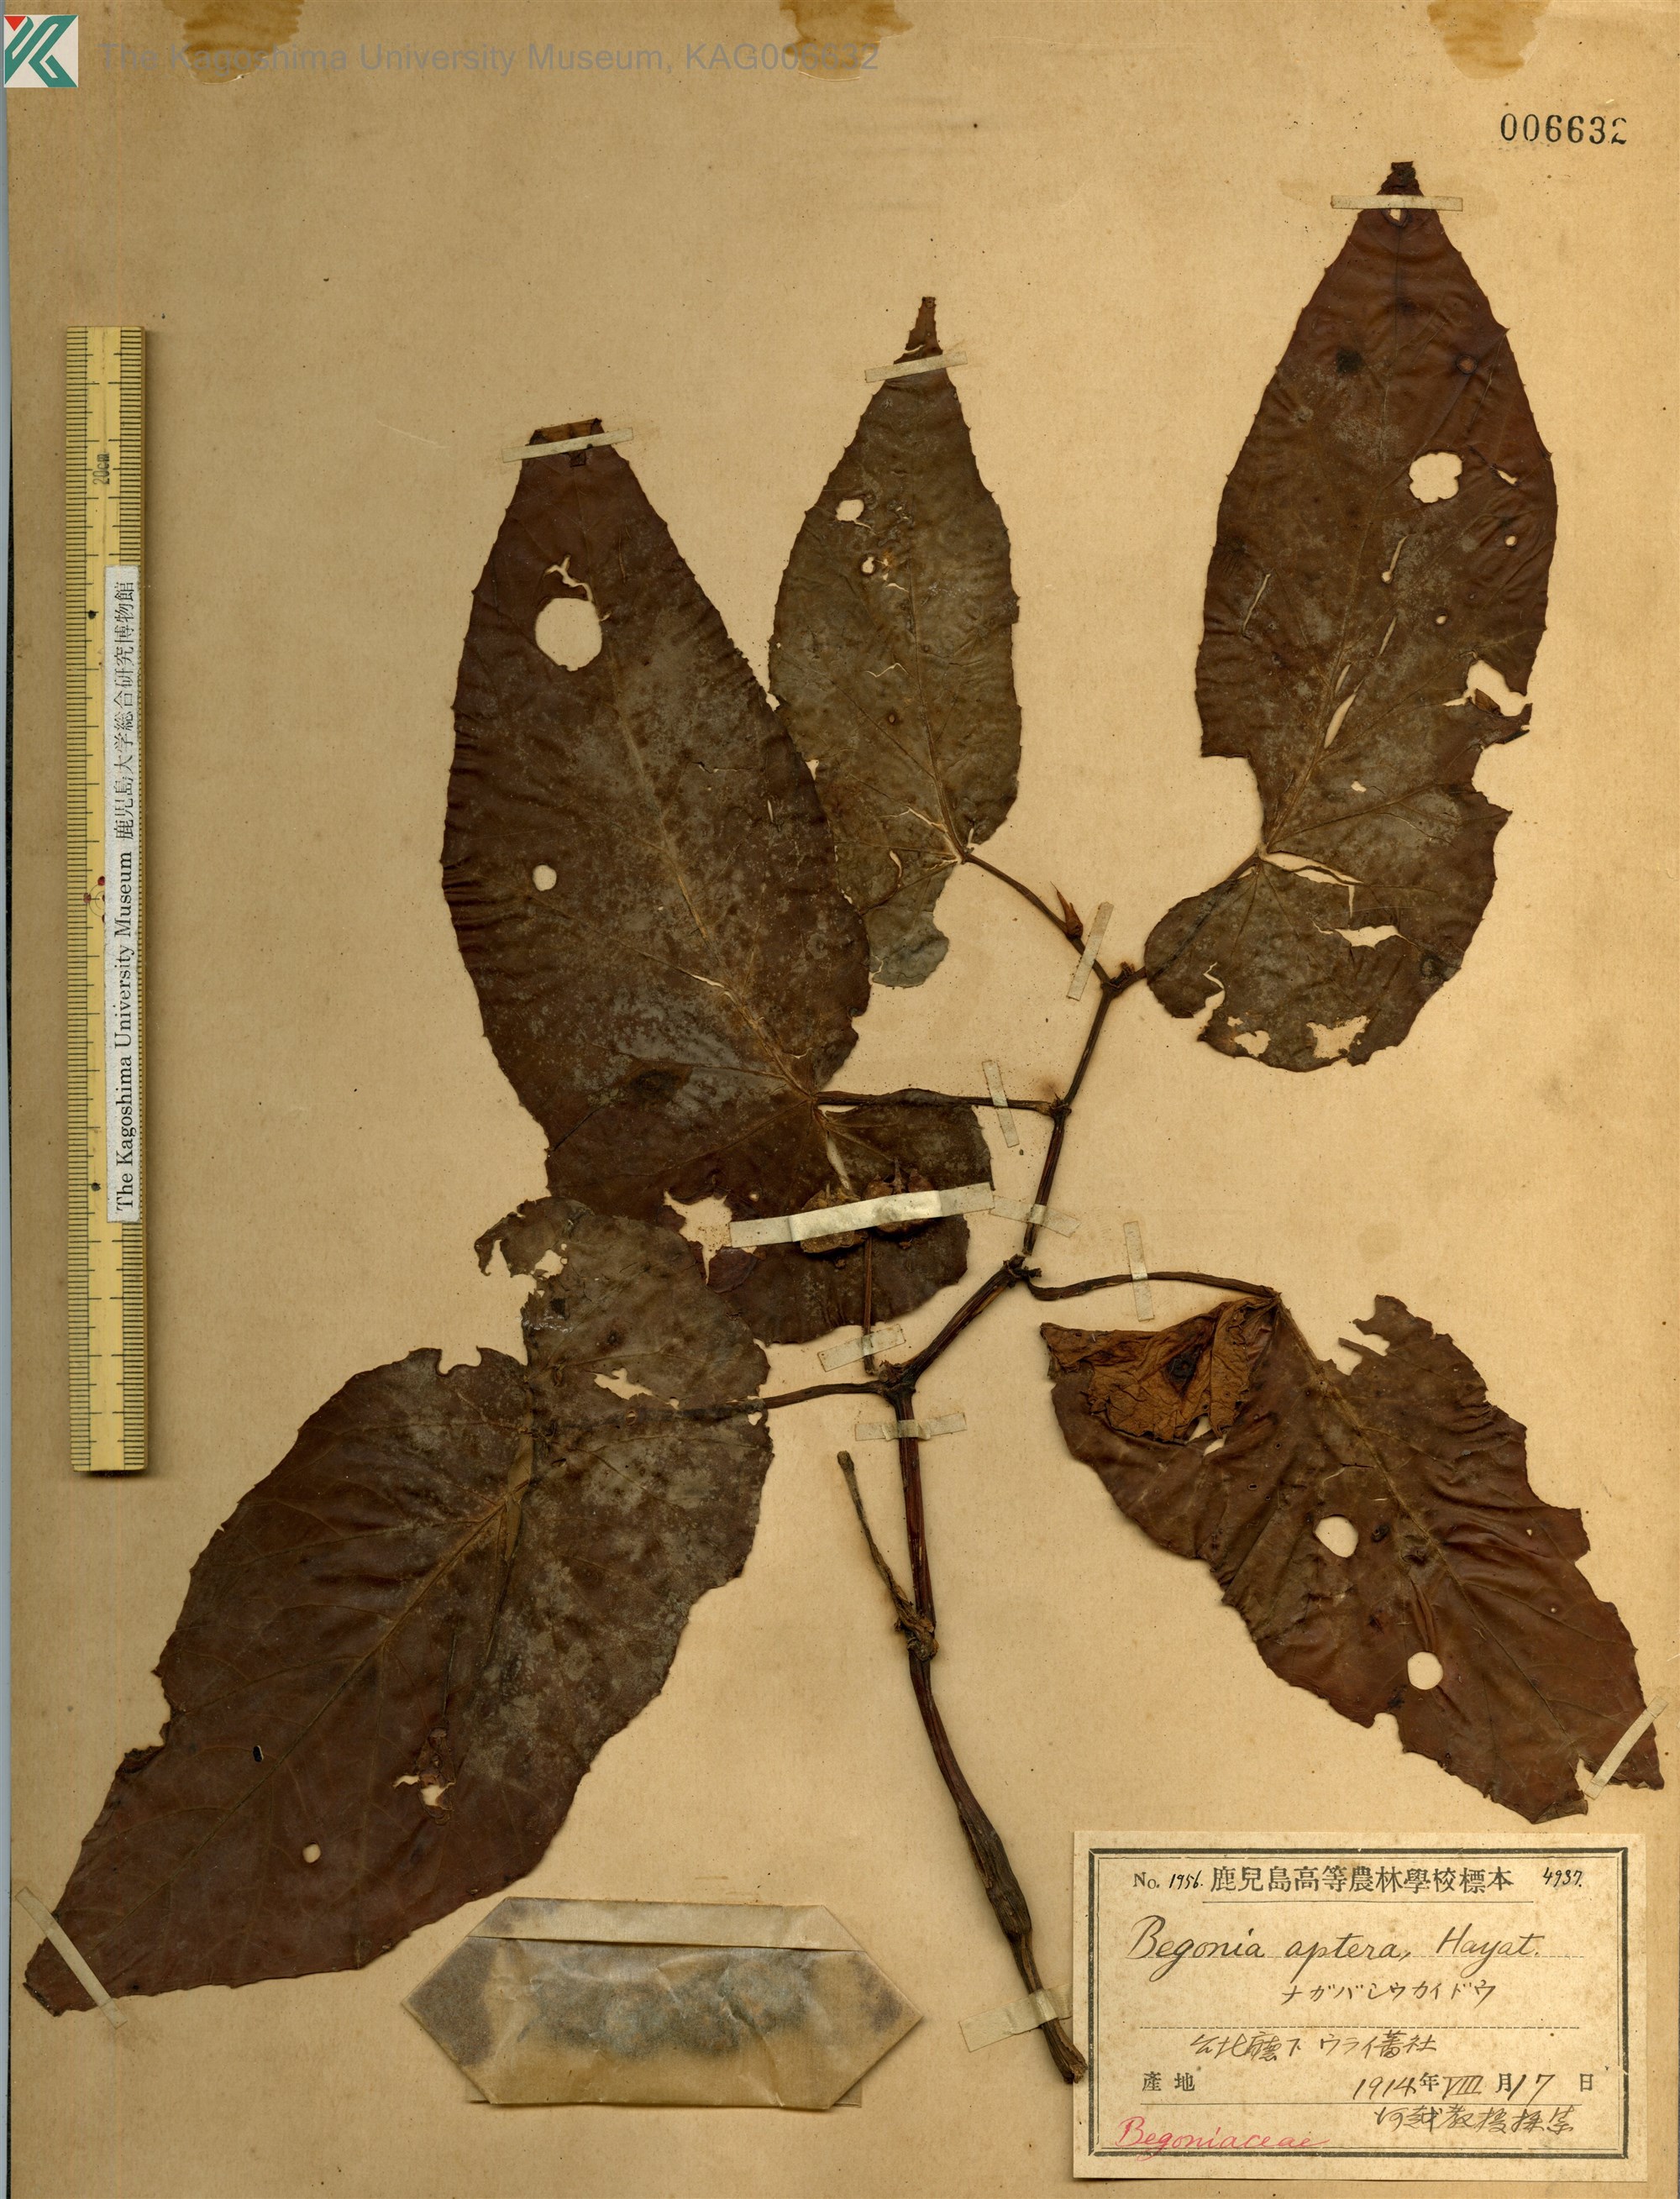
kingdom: Plantae
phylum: Tracheophyta
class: Magnoliopsida
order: Cucurbitales
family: Begoniaceae
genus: Begonia
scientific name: Begonia aptera
